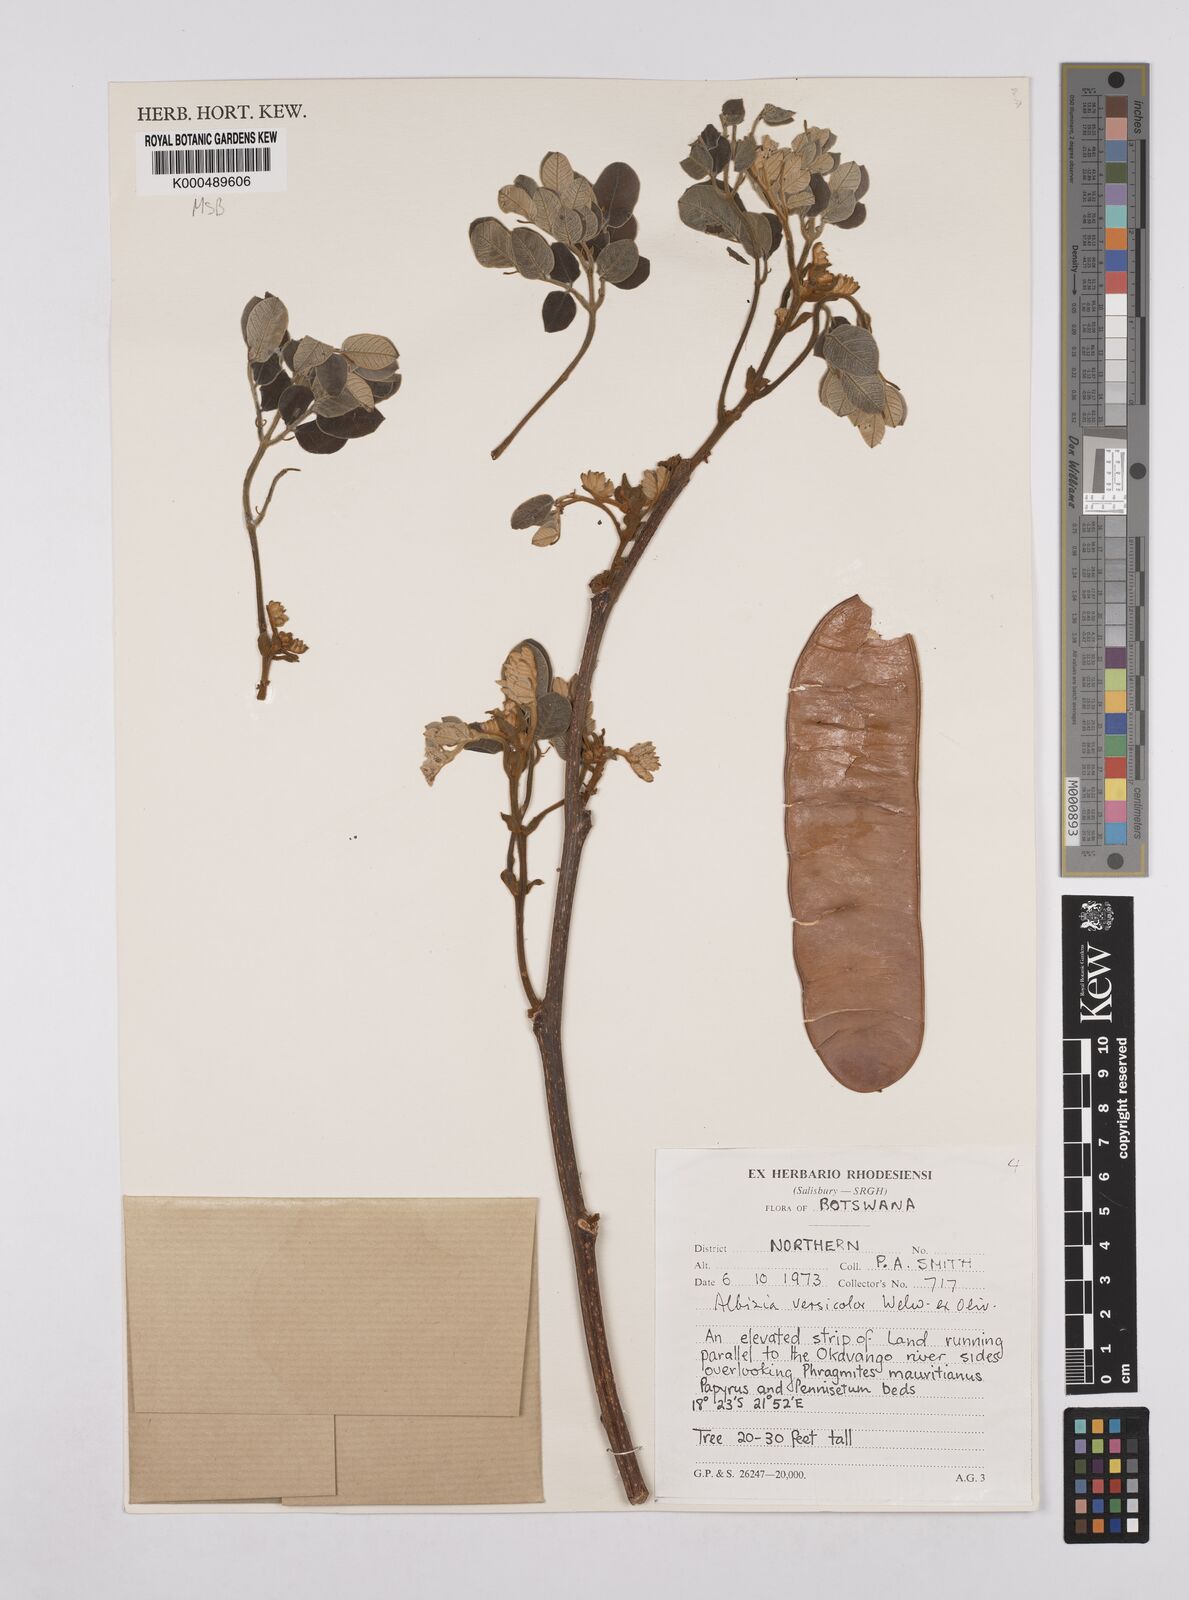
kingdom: Plantae
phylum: Tracheophyta
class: Magnoliopsida
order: Fabales
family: Fabaceae
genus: Albizia
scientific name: Albizia versicolor
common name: Poisonpod
